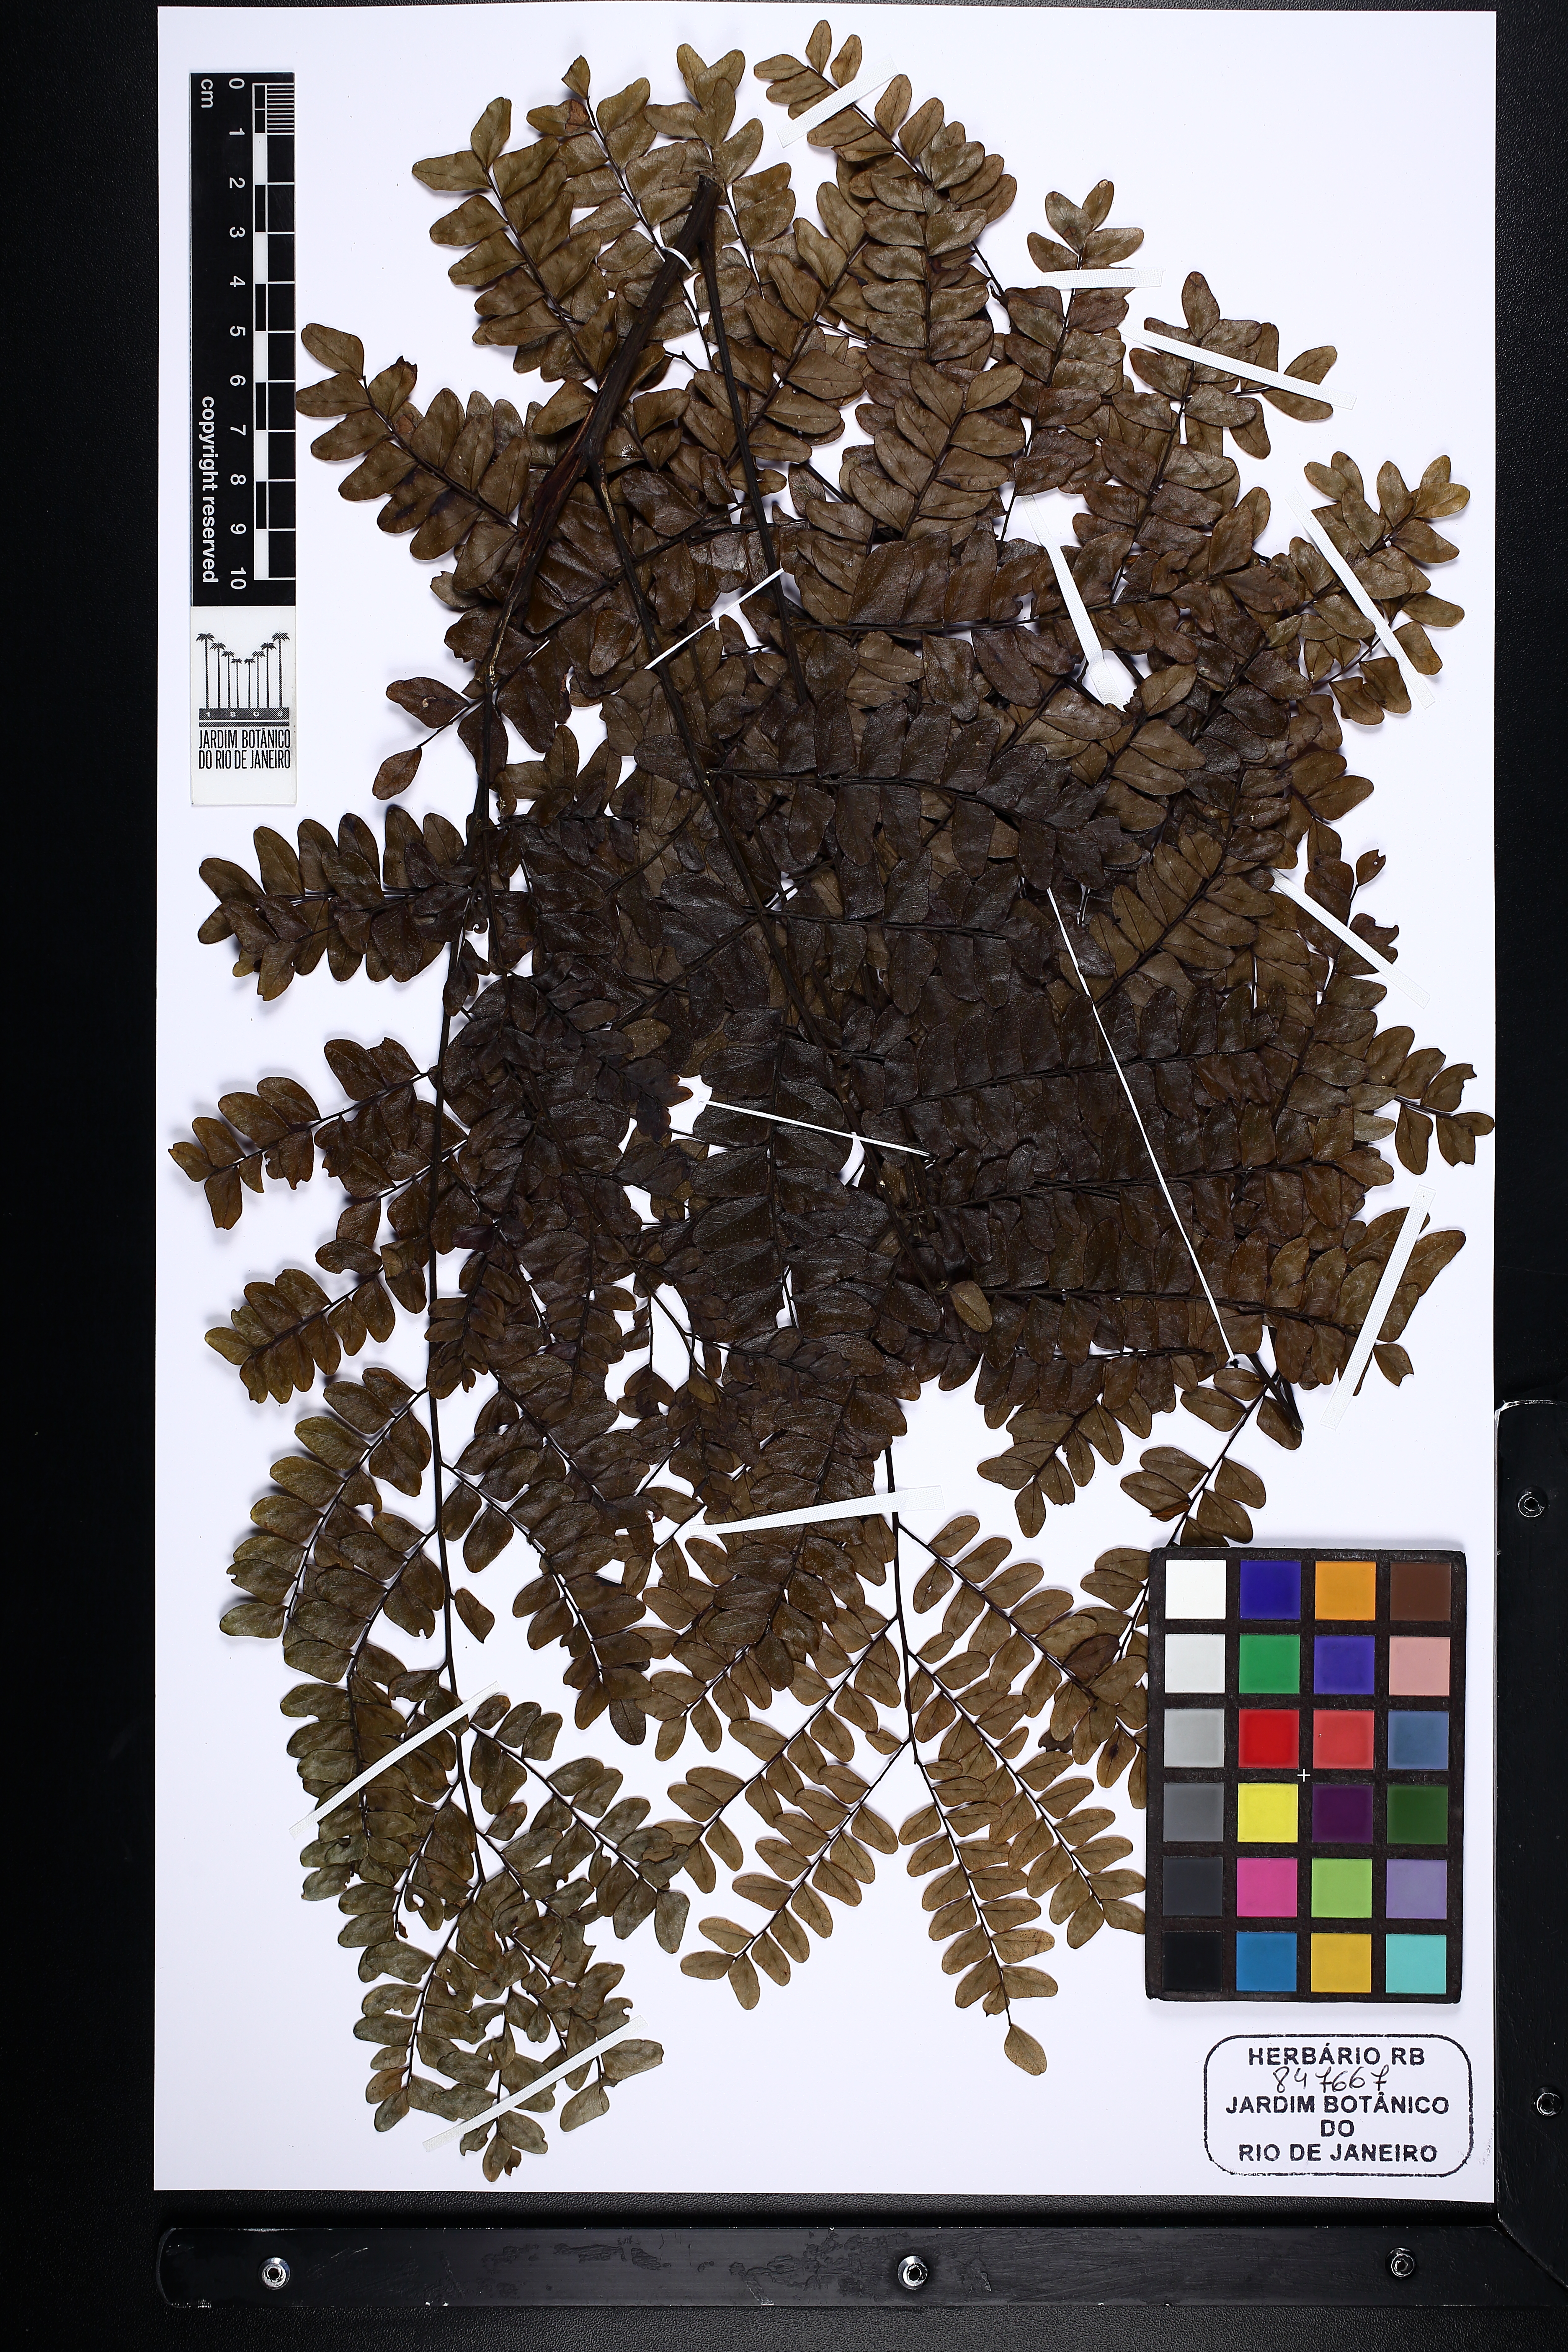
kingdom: Plantae
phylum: Tracheophyta
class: Magnoliopsida
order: Fabales
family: Fabaceae
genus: Dinizia
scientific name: Dinizia excelsa
